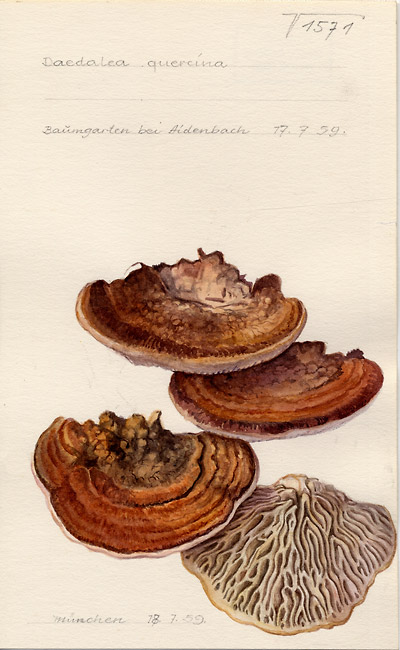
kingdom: Fungi
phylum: Basidiomycota
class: Agaricomycetes
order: Polyporales
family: Fomitopsidaceae
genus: Daedalea
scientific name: Daedalea quercina
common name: Oak mazegill
